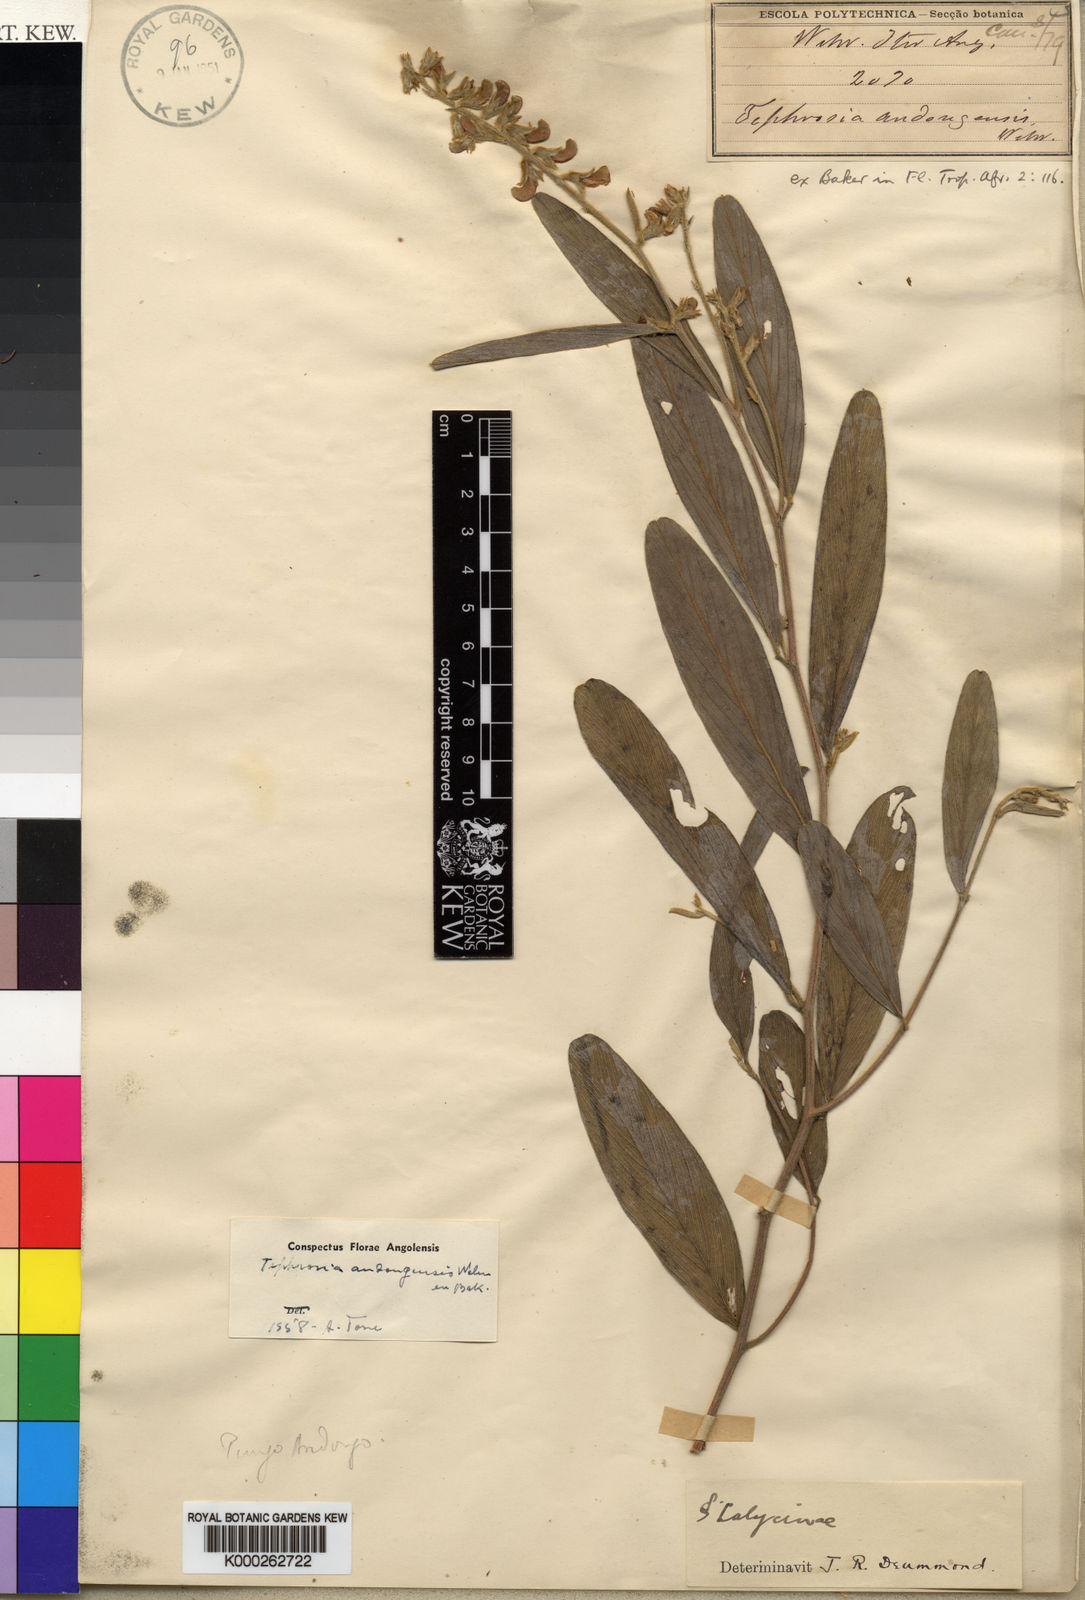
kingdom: Plantae
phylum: Tracheophyta
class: Magnoliopsida
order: Fabales
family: Fabaceae
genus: Tephrosia
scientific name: Tephrosia andongensis
